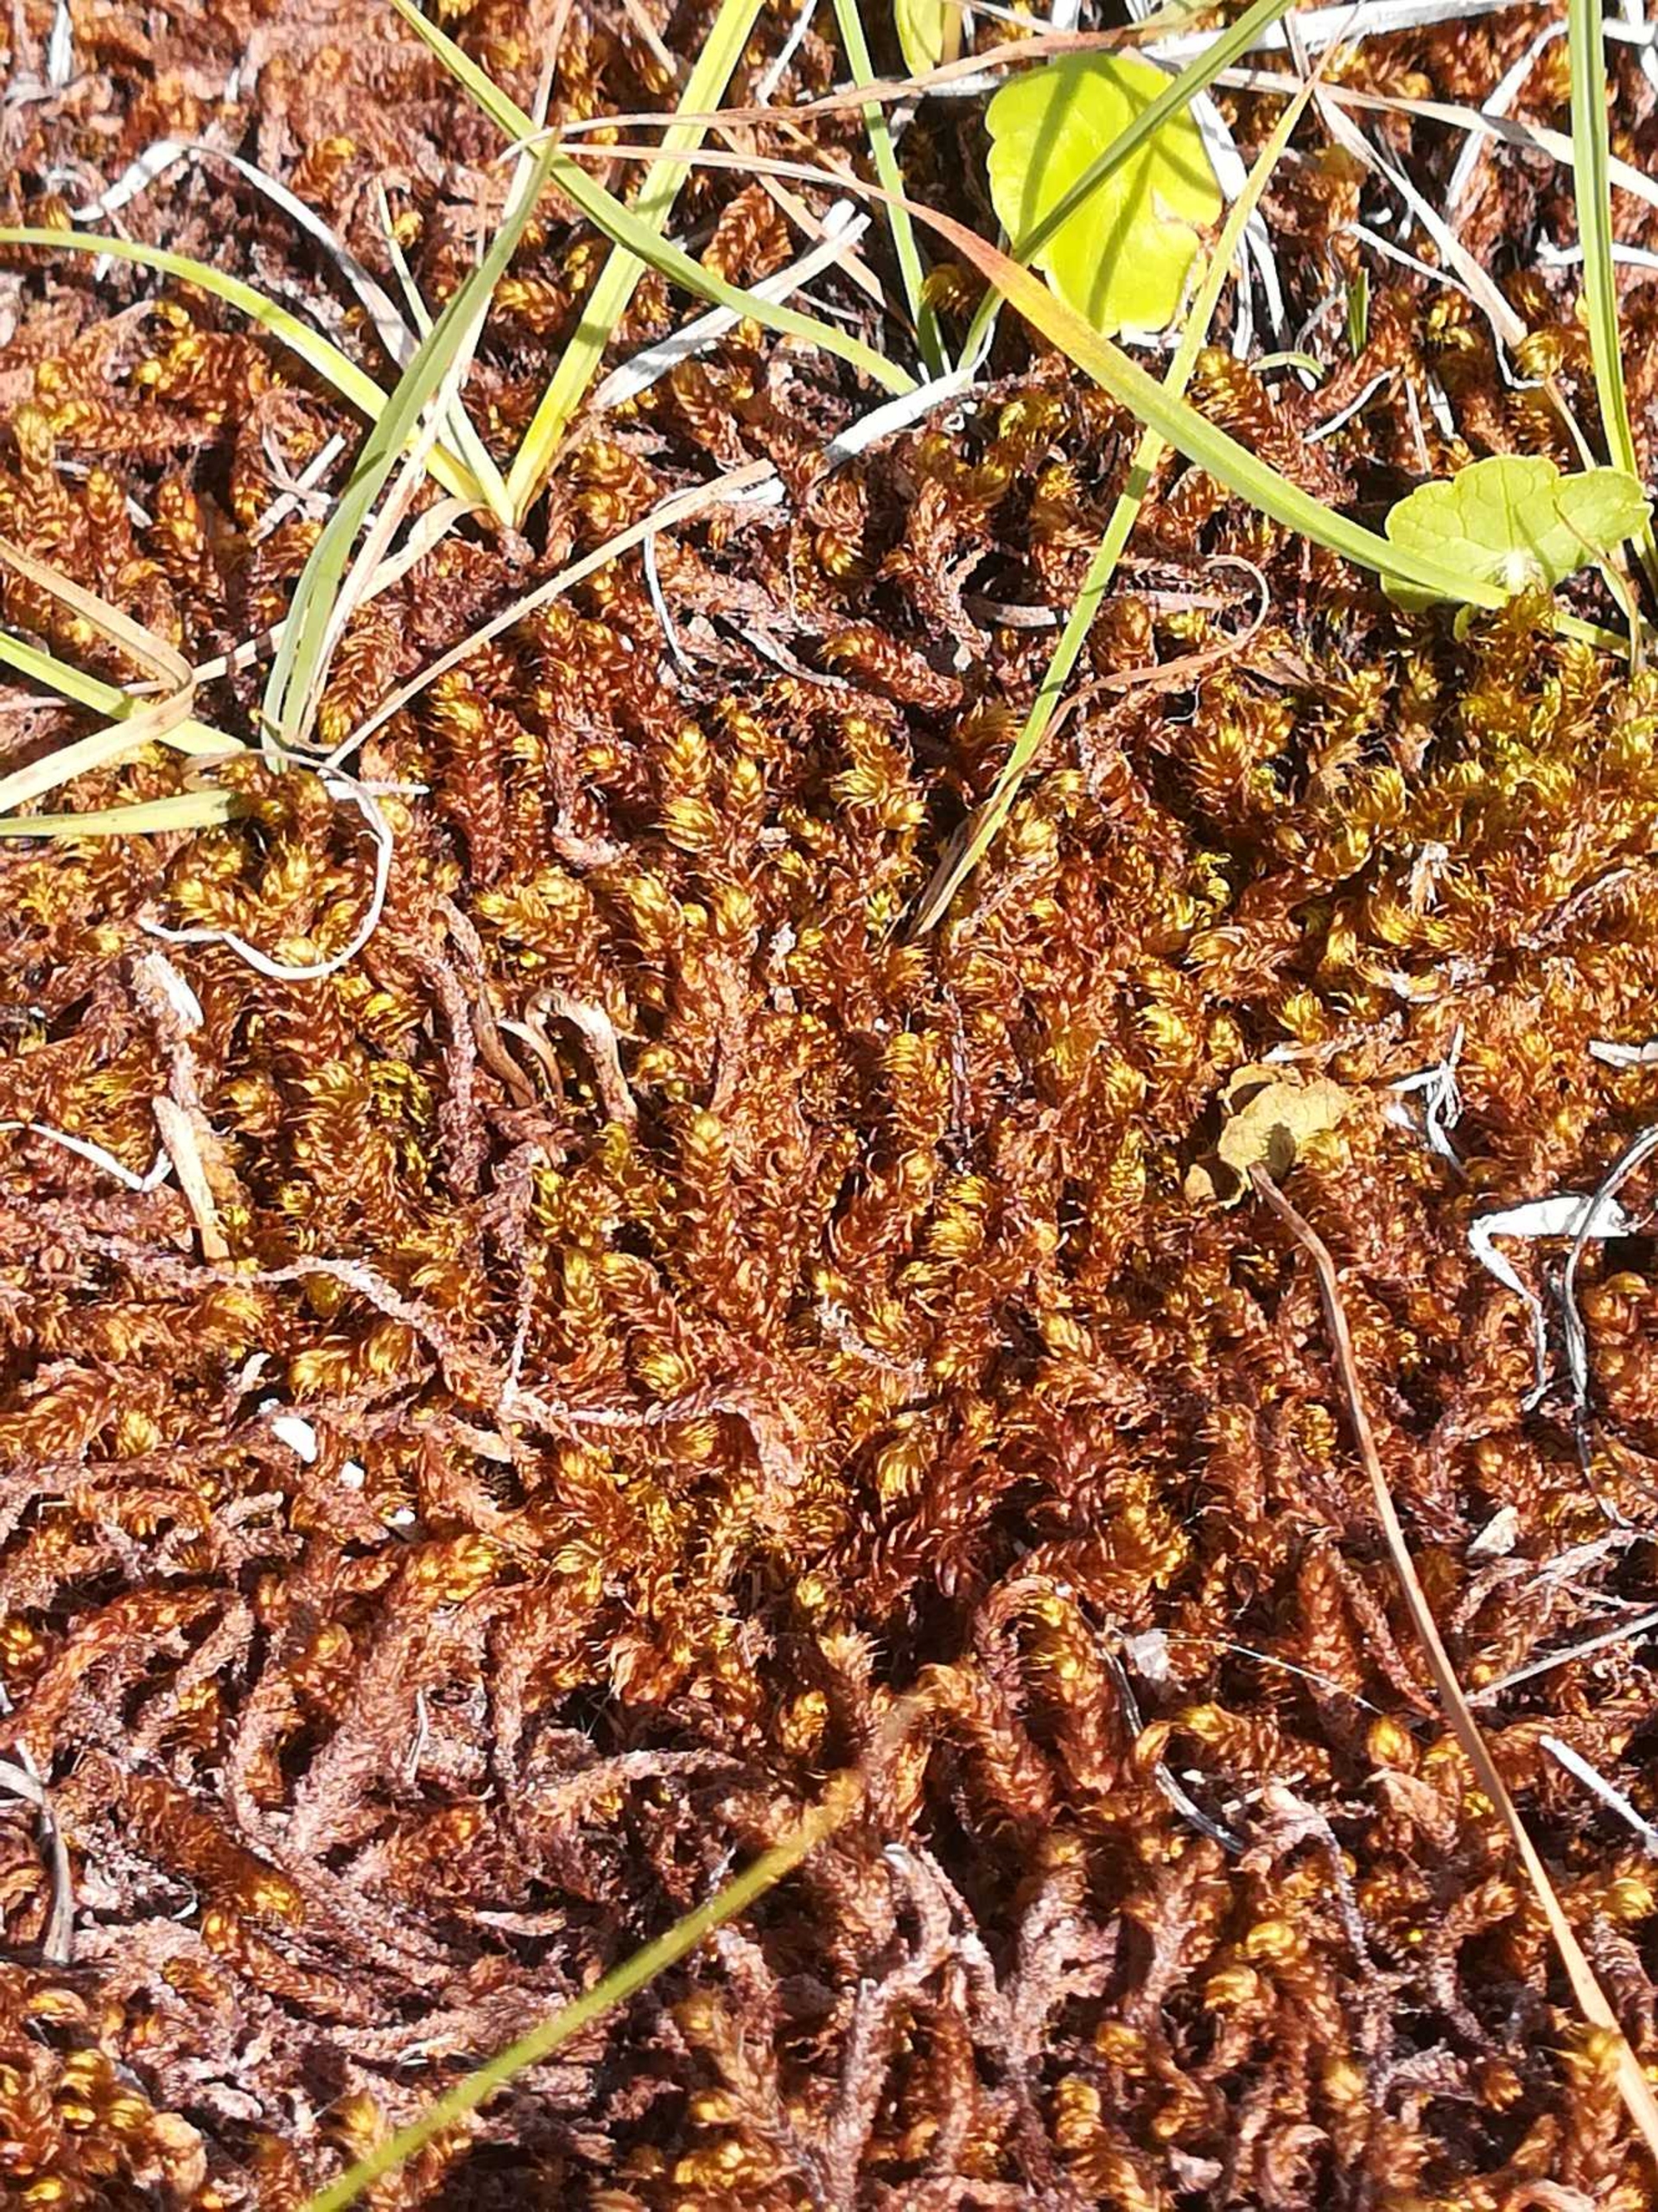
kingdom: Plantae
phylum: Bryophyta
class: Bryopsida
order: Hypnales
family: Amblystegiaceae
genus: Drepanocladus
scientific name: Drepanocladus lycopodioides
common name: Blød seglmos
